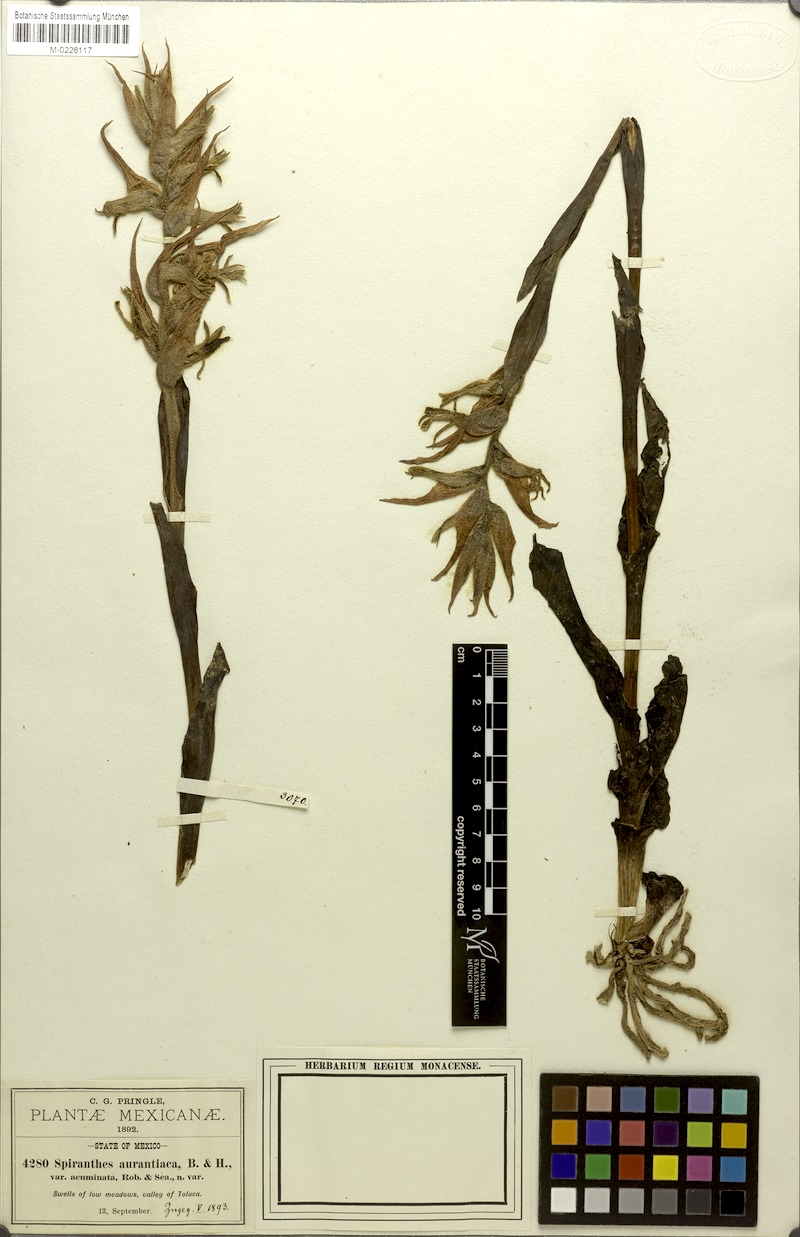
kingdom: Plantae
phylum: Tracheophyta
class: Liliopsida
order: Asparagales
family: Orchidaceae
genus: Dichromanthus
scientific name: Dichromanthus aurantiacus
